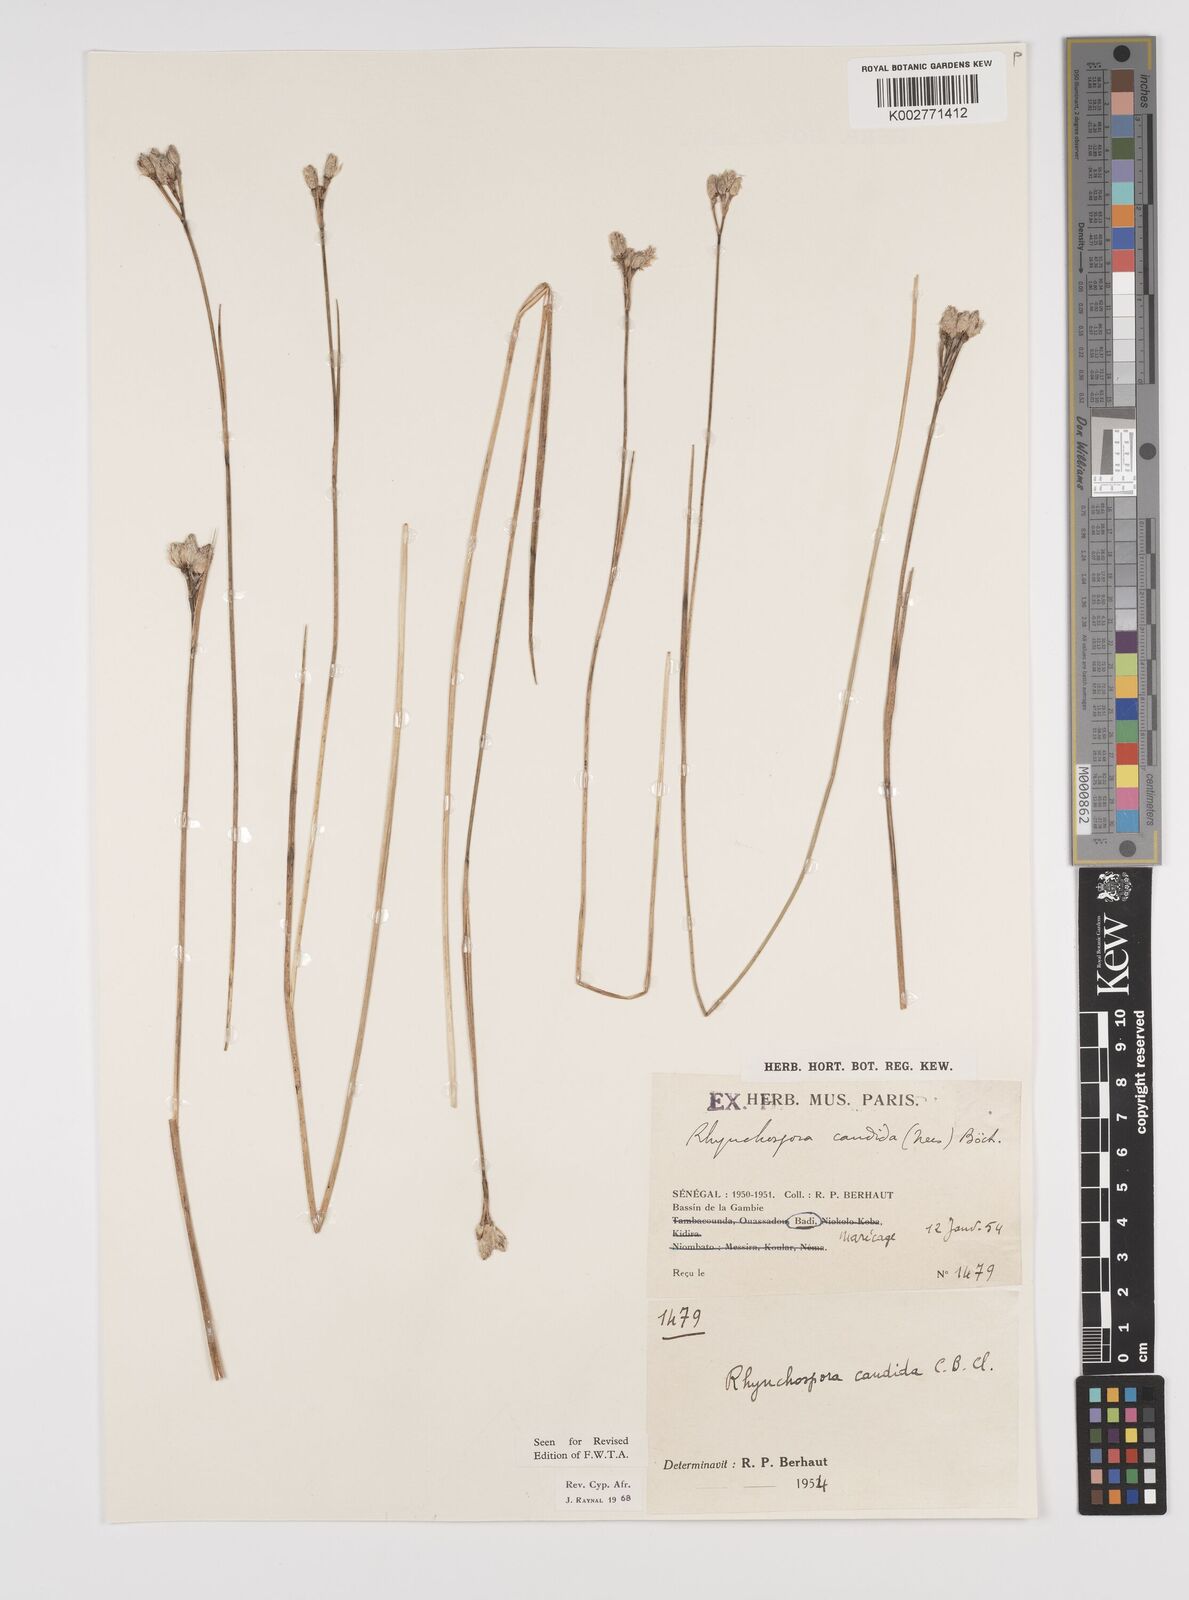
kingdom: Plantae
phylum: Tracheophyta
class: Liliopsida
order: Poales
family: Cyperaceae
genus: Rhynchospora
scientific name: Rhynchospora candida
